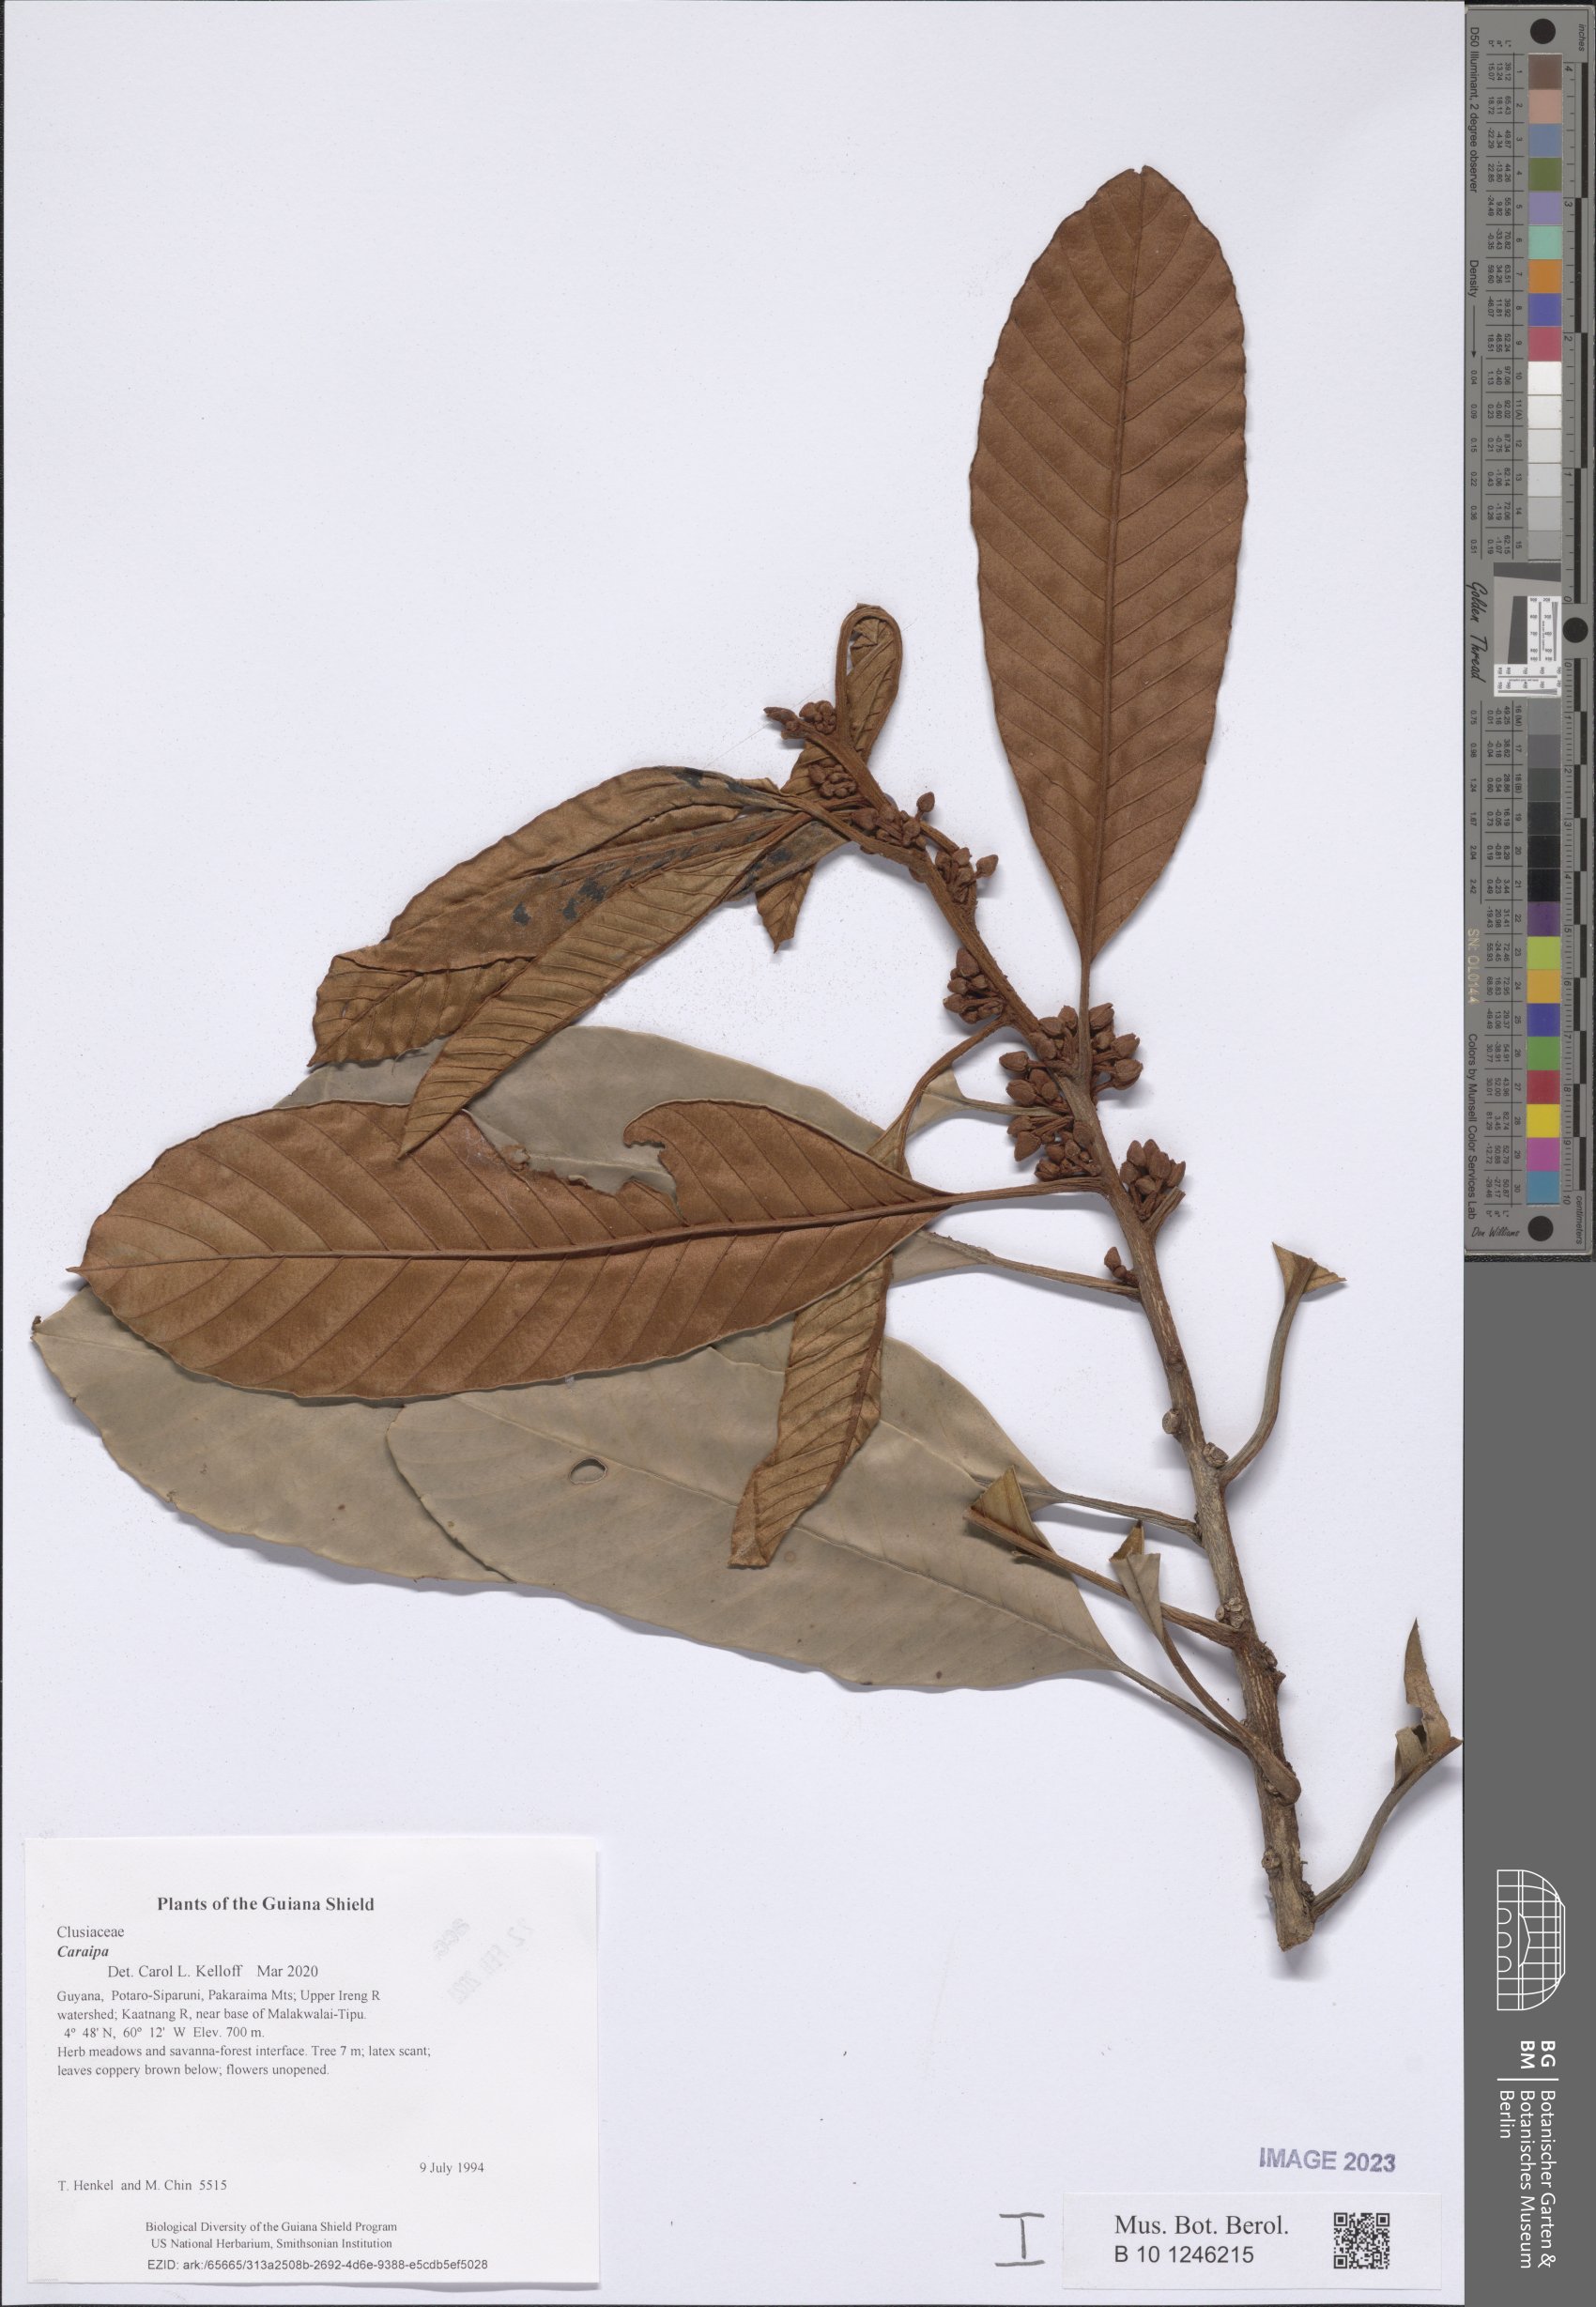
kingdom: Plantae
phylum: Tracheophyta
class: Magnoliopsida
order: Malpighiales
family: Calophyllaceae
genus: Caraipa
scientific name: Caraipa
